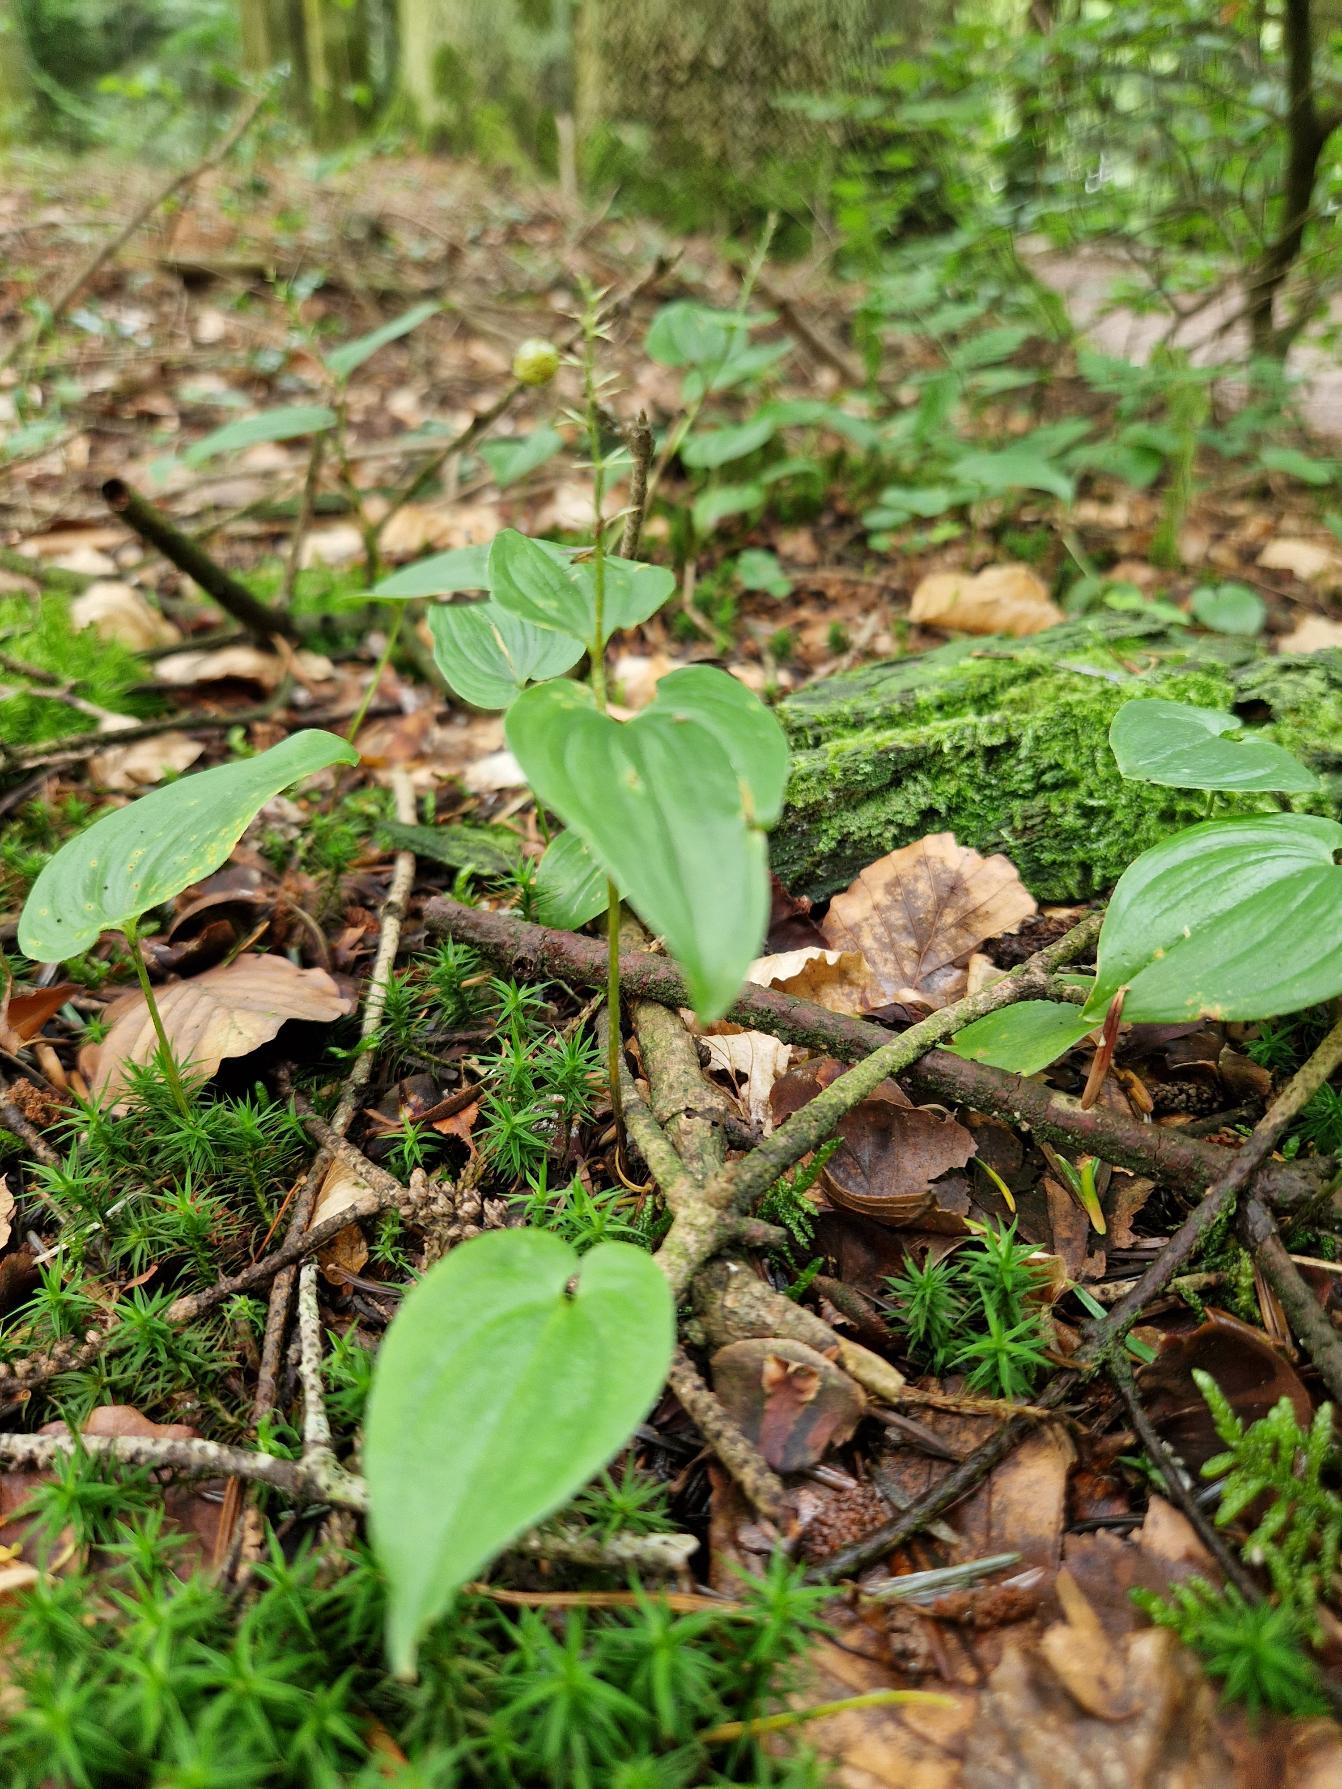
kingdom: Plantae
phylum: Tracheophyta
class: Liliopsida
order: Asparagales
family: Asparagaceae
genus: Maianthemum
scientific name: Maianthemum bifolium
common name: Majblomst
